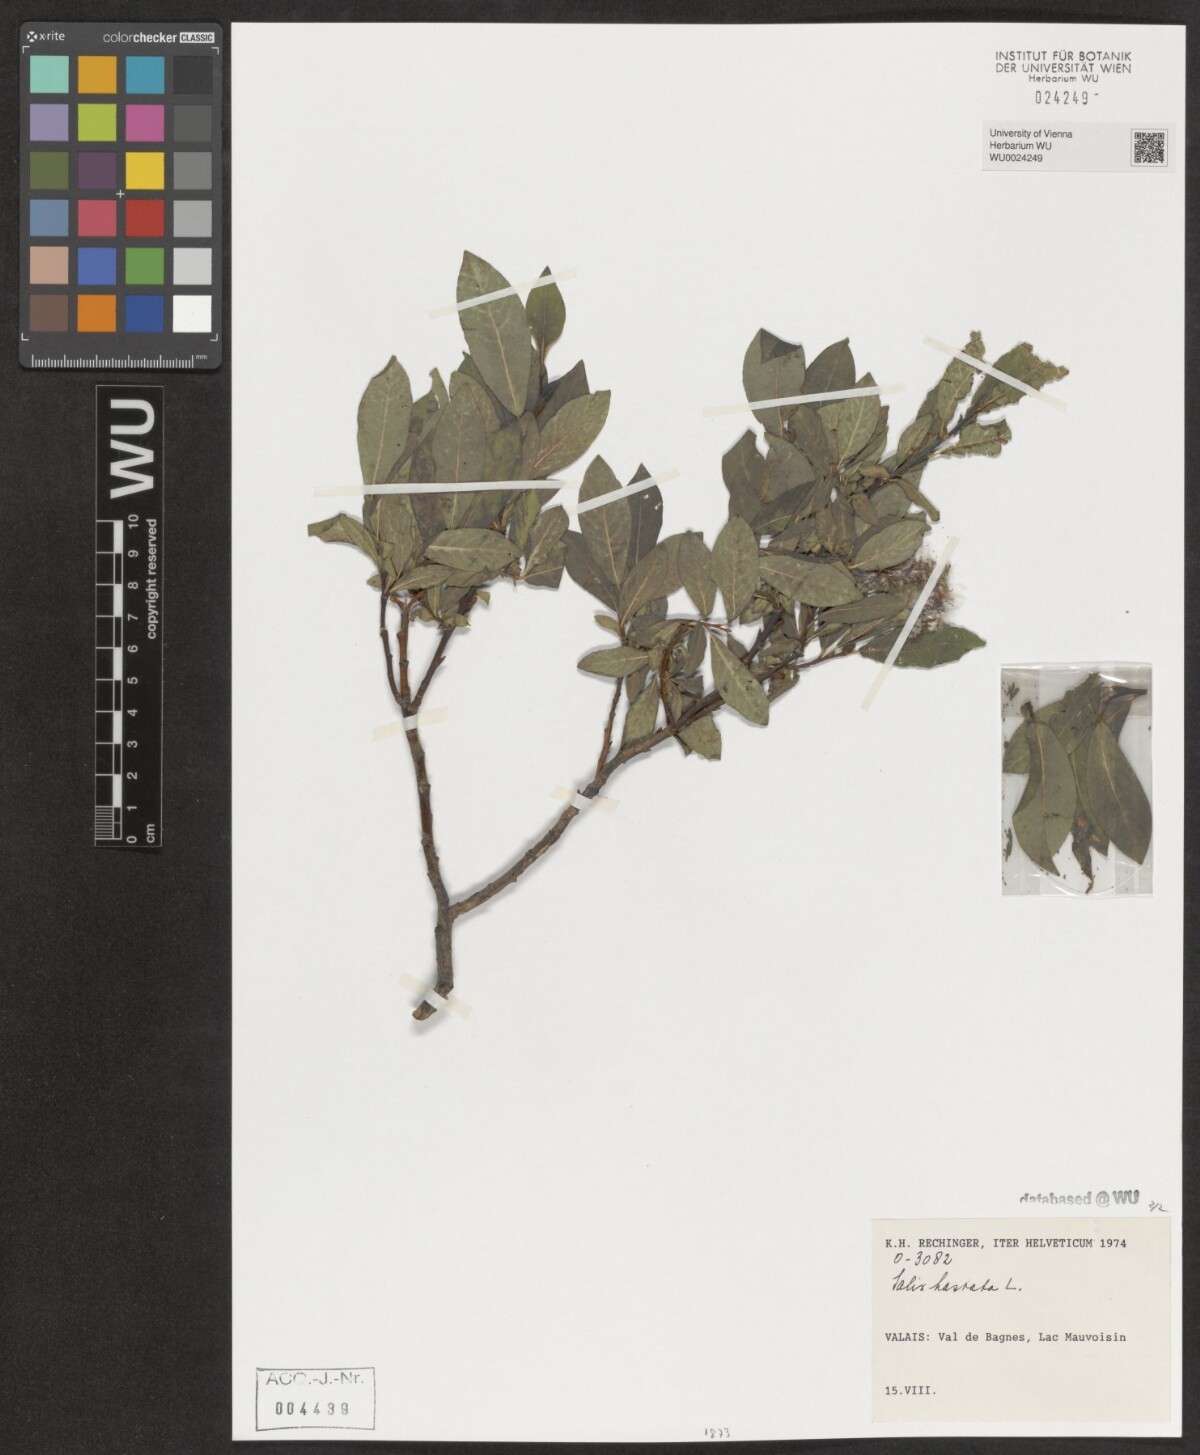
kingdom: Plantae
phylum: Tracheophyta
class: Magnoliopsida
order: Malpighiales
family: Salicaceae
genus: Salix
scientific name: Salix hastata
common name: Halberd willow
